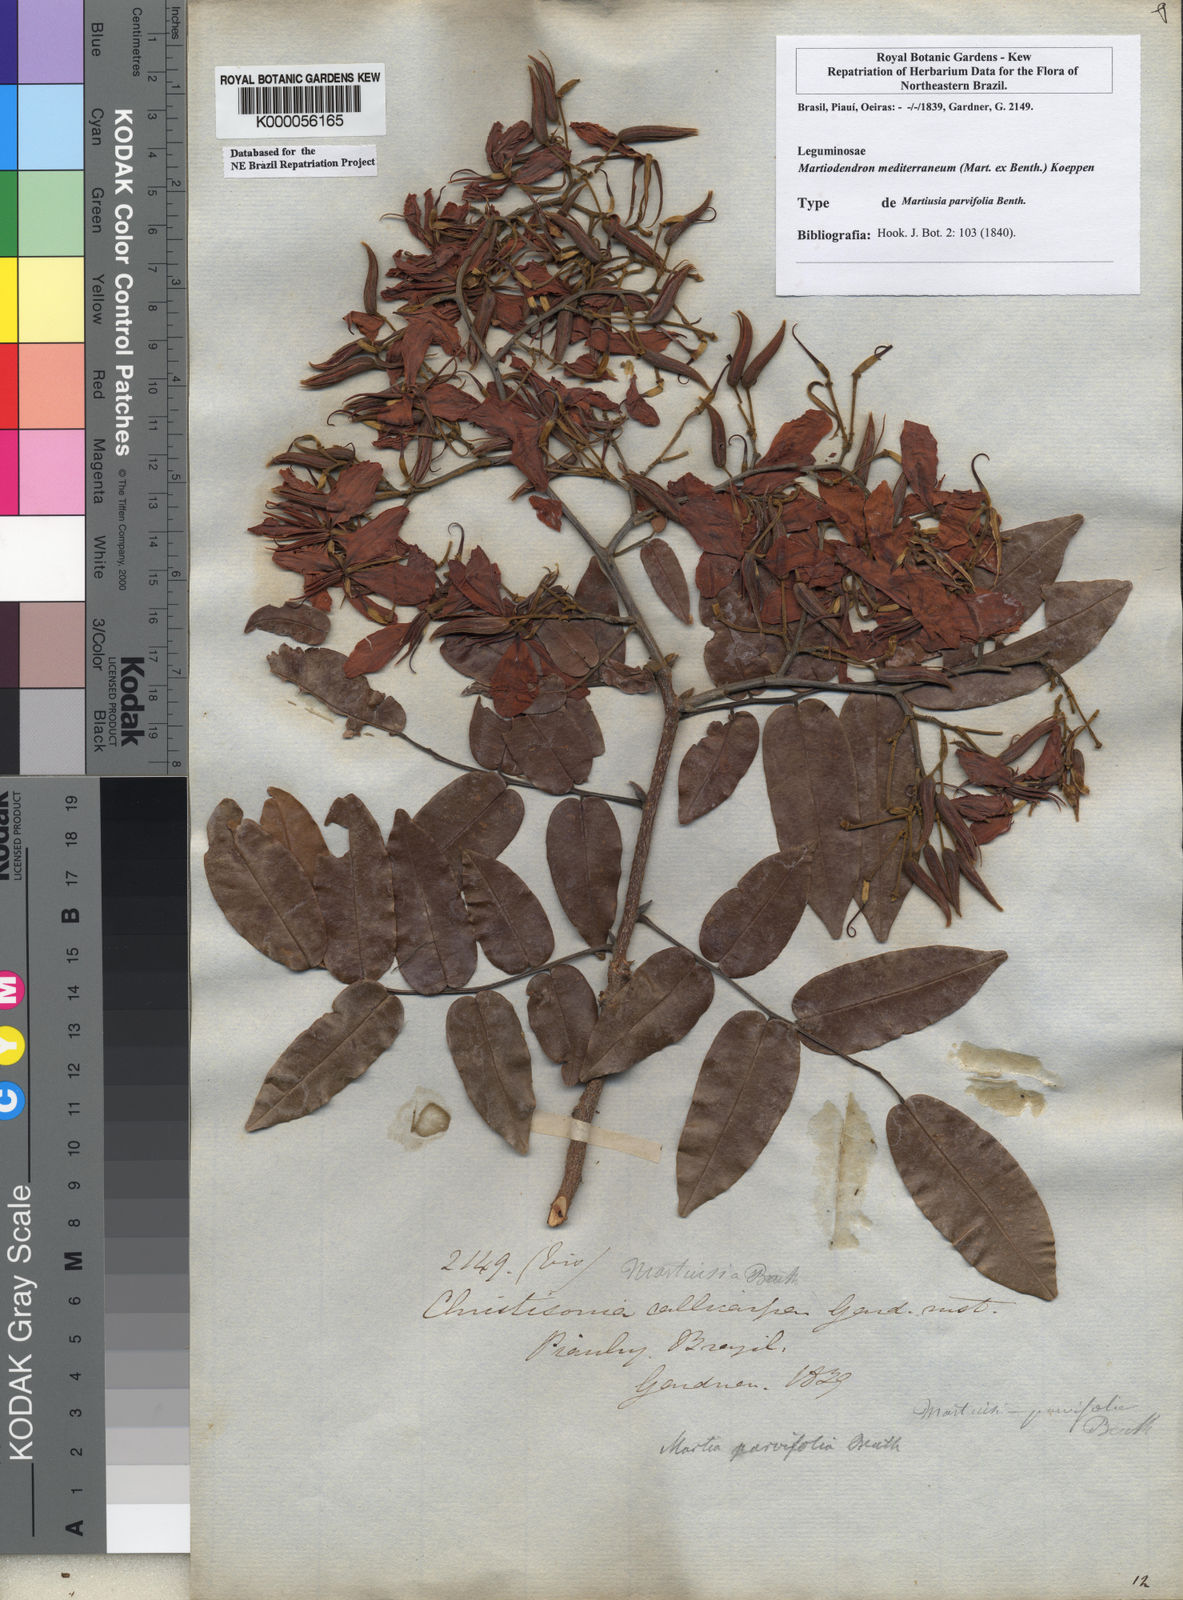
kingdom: Plantae
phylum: Tracheophyta
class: Magnoliopsida
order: Fabales
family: Fabaceae
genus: Martiodendron
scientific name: Martiodendron
